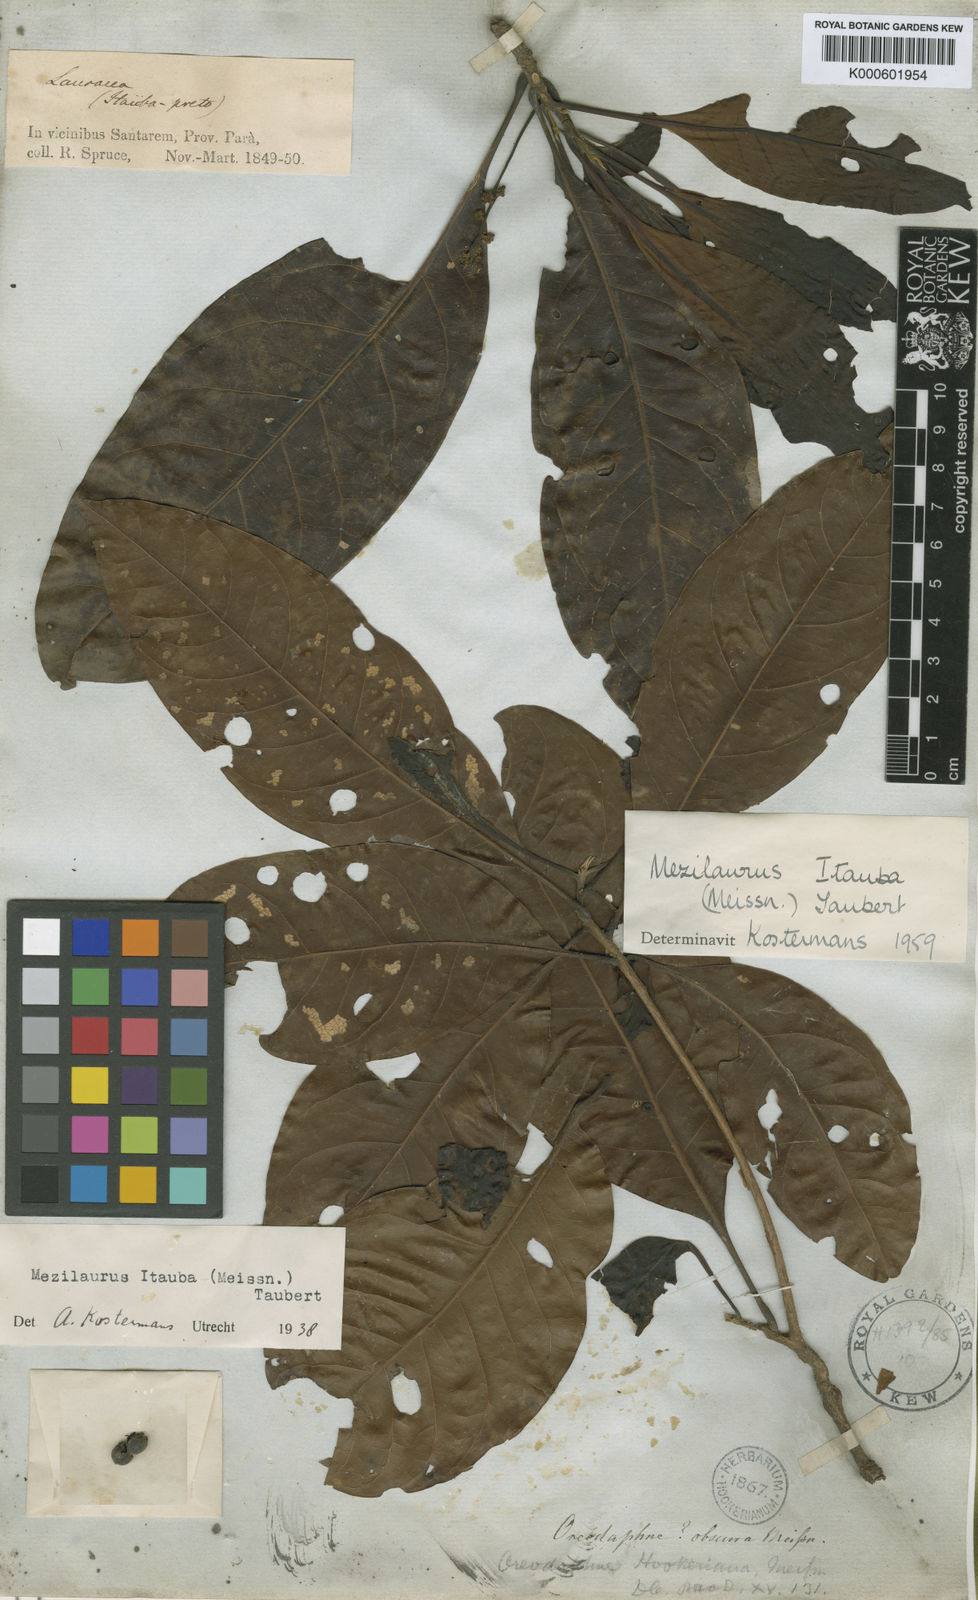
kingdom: Plantae
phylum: Tracheophyta
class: Magnoliopsida
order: Laurales
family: Lauraceae
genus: Mezilaurus
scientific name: Mezilaurus ita-uba
